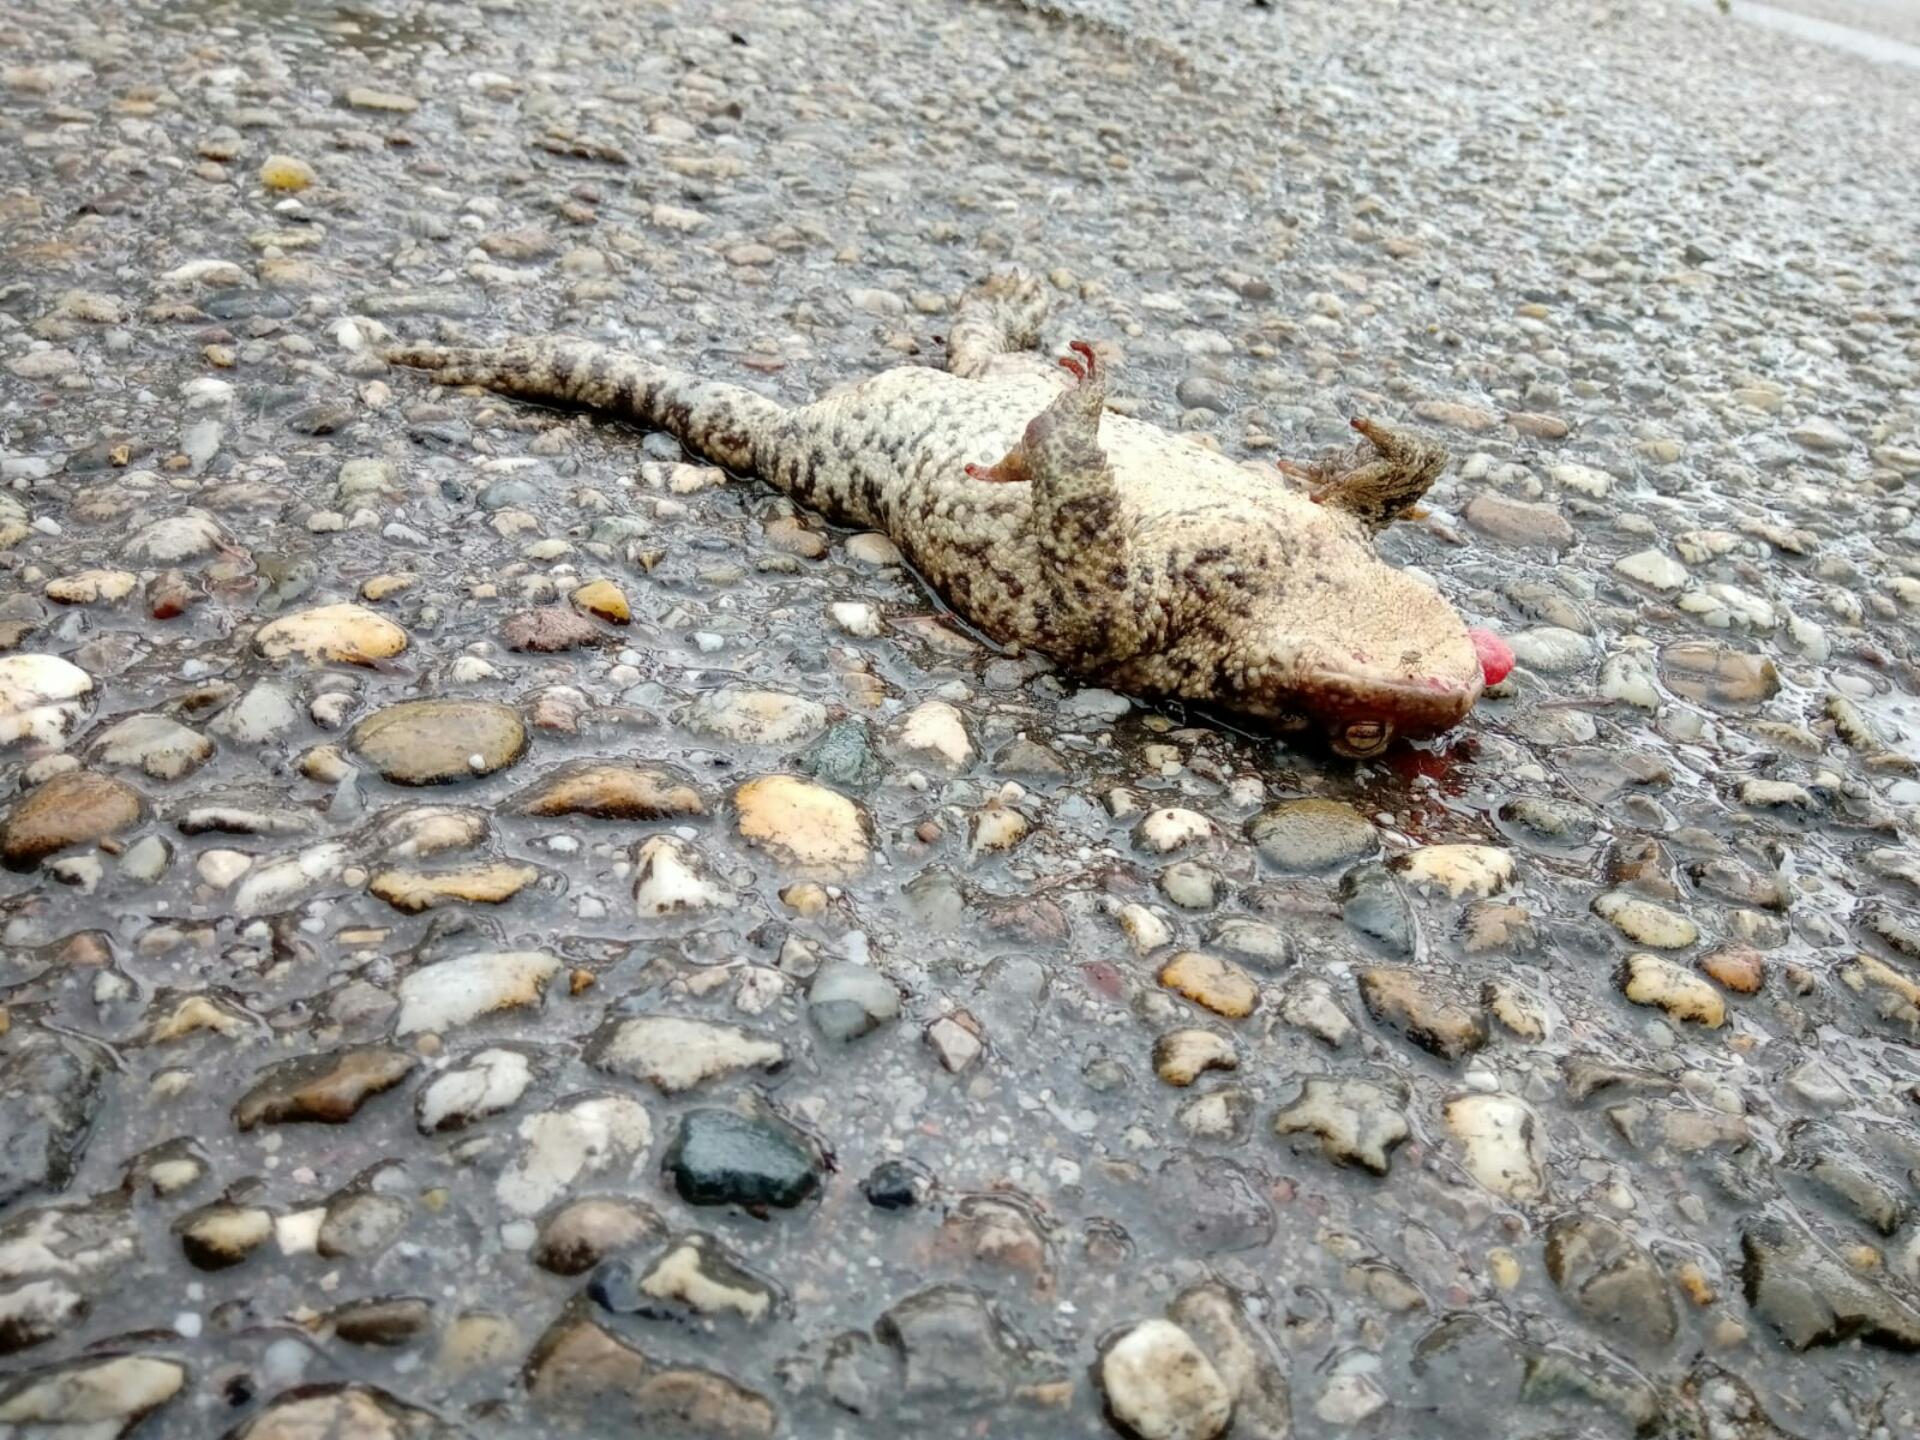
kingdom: Animalia
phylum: Chordata
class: Amphibia
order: Anura
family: Bufonidae
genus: Bufo
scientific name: Bufo bufo
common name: Common toad
